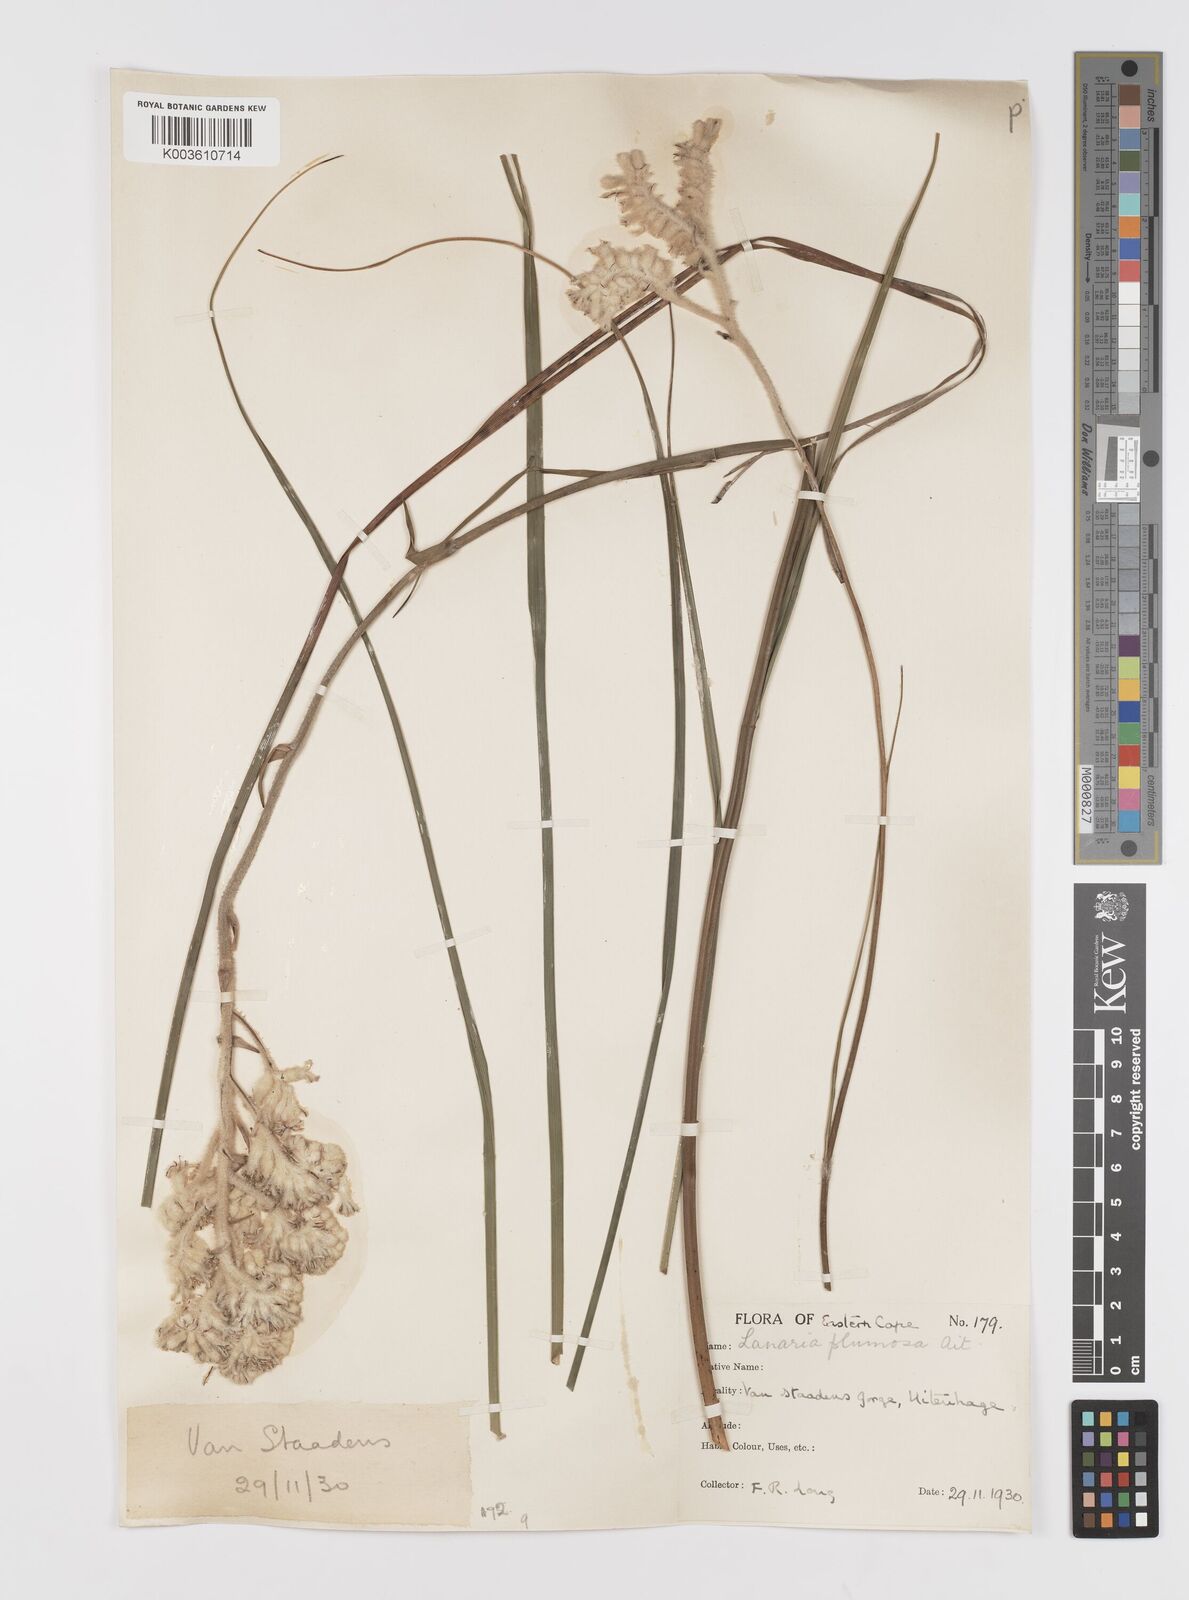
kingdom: Plantae
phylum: Tracheophyta
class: Liliopsida
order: Asparagales
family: Lanariaceae
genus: Lanaria
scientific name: Lanaria lanata
